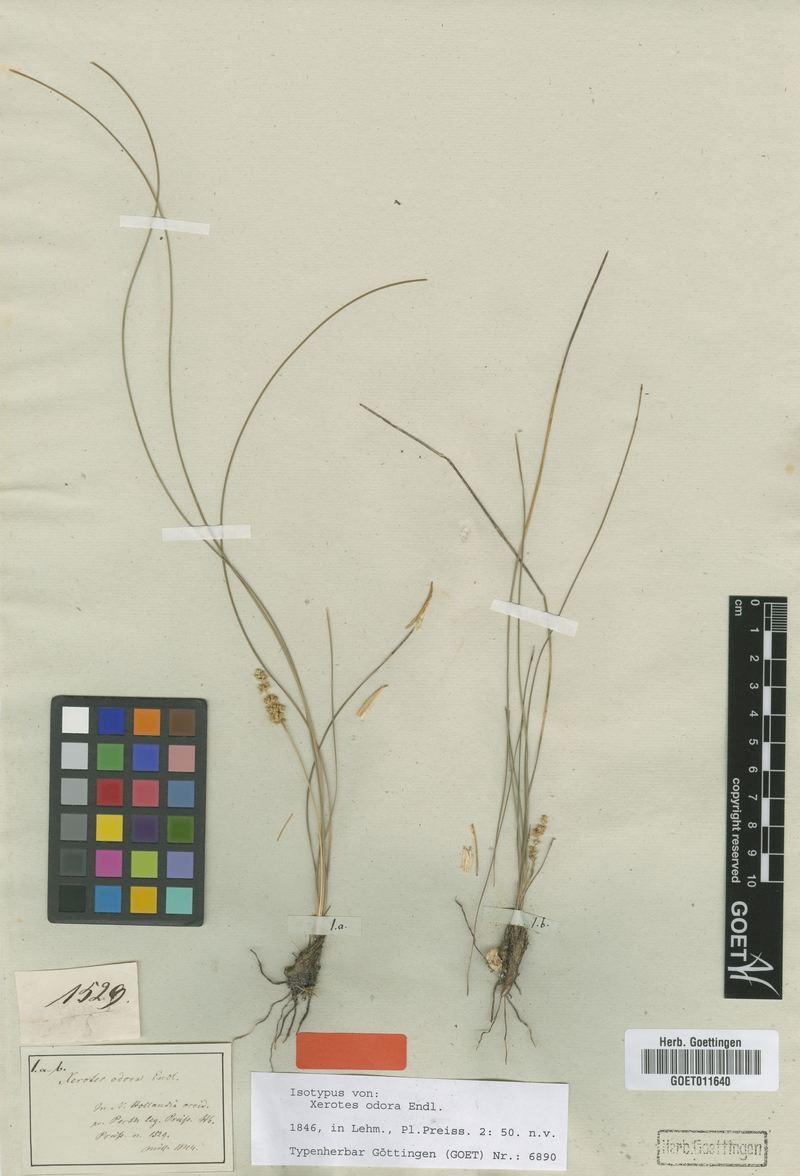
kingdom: Plantae
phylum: Tracheophyta
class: Liliopsida
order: Asparagales
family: Asparagaceae
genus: Lomandra
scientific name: Lomandra odora
